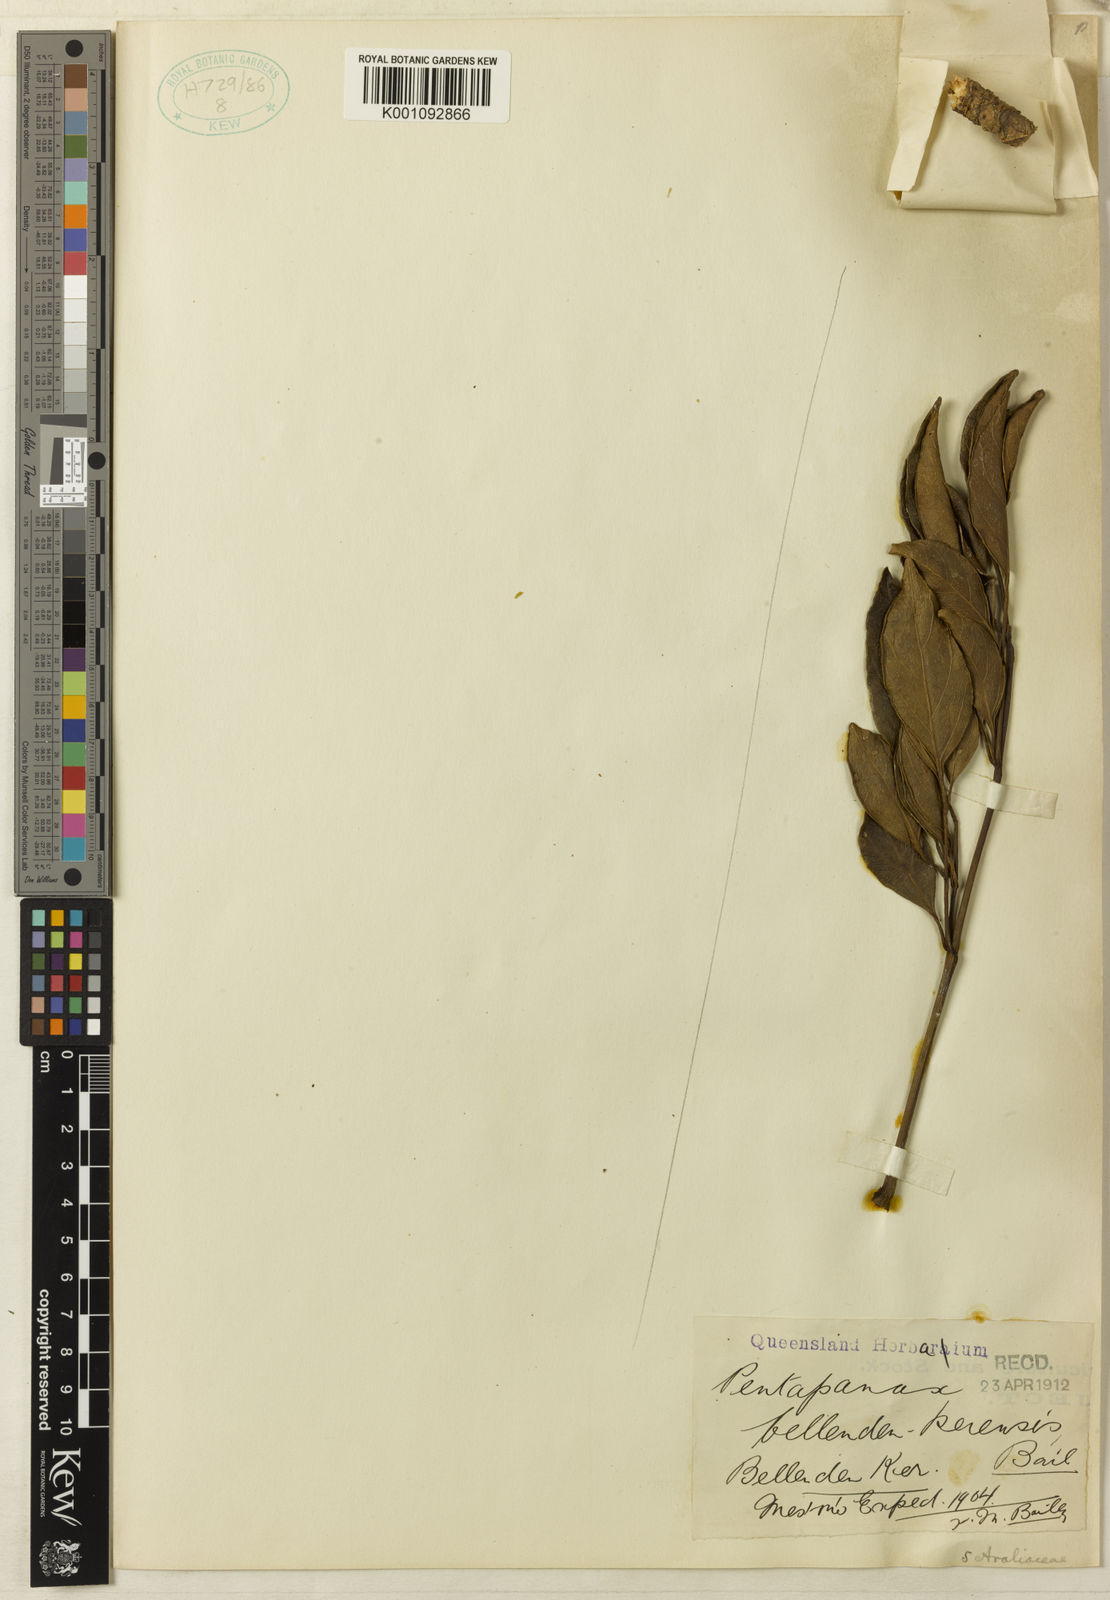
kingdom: Plantae
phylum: Tracheophyta
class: Magnoliopsida
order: Apiales
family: Araliaceae
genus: Polyscias
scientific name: Polyscias
